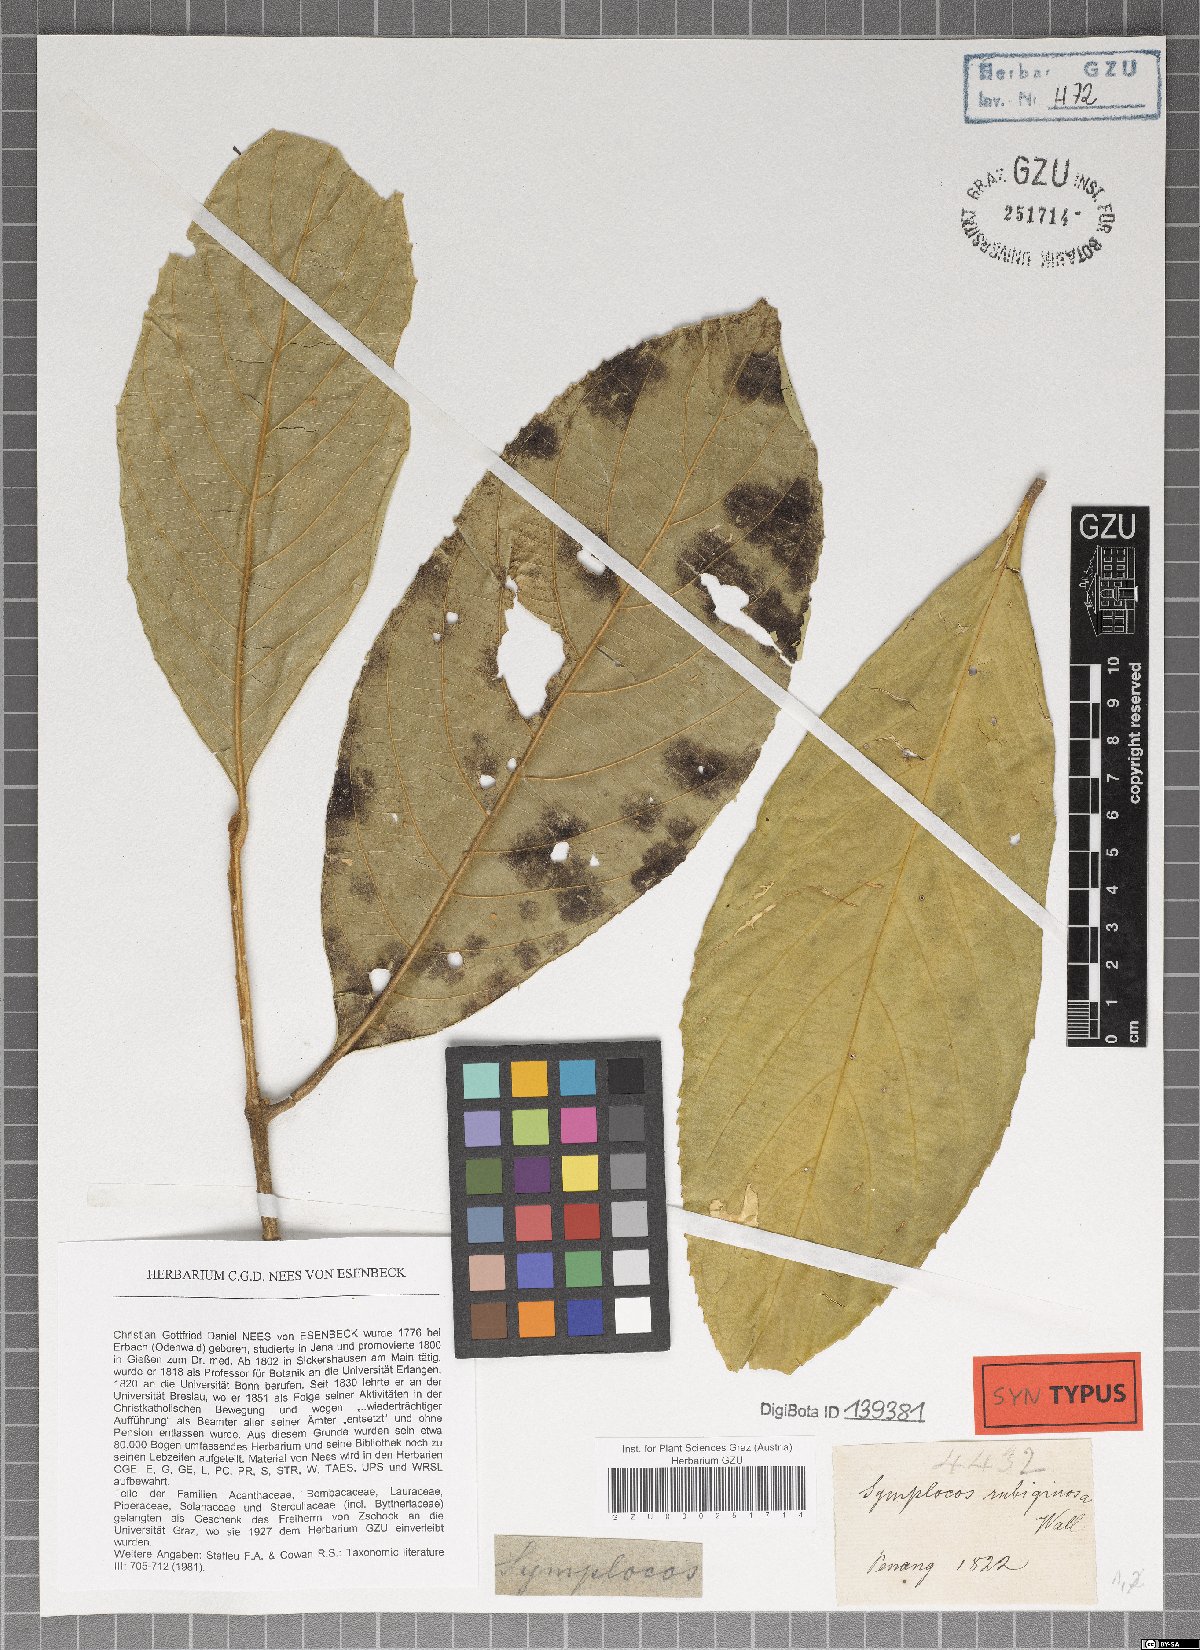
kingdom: Plantae
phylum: Tracheophyta
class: Magnoliopsida
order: Ericales
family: Symplocaceae
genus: Symplocos
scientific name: Symplocos rubiginosa
